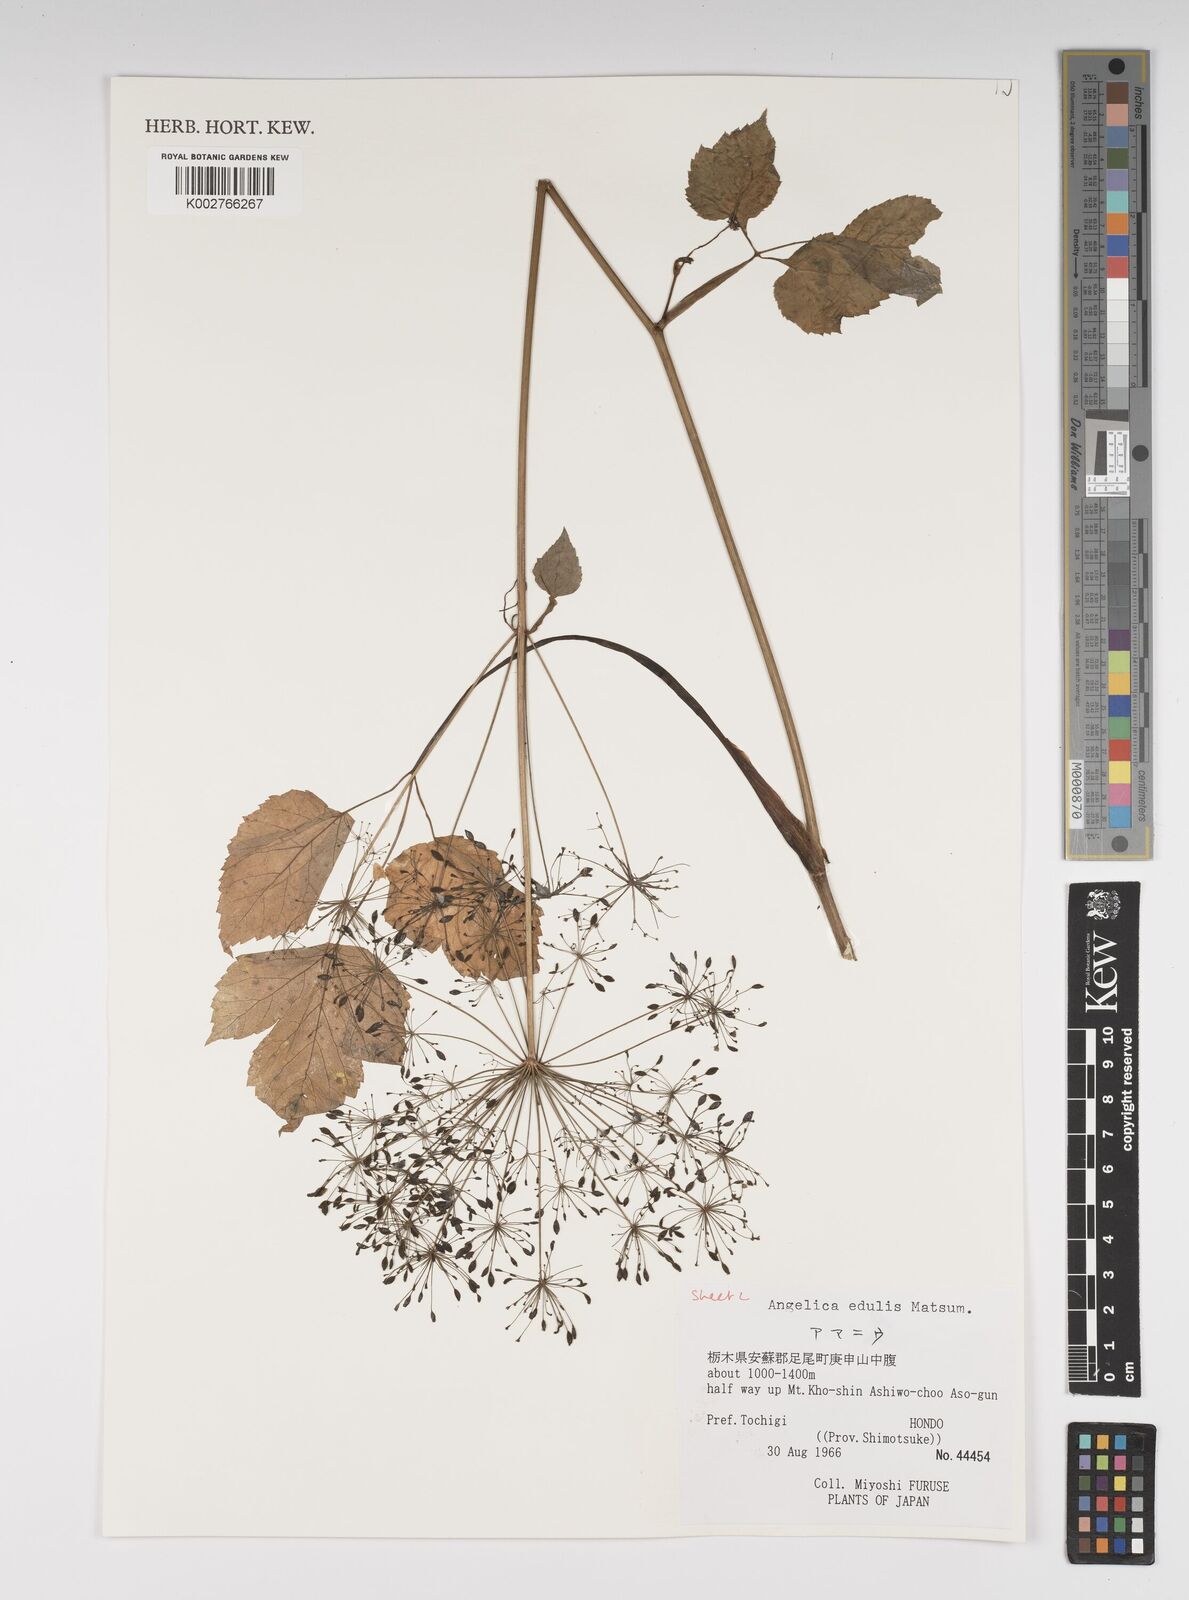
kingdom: Plantae
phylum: Tracheophyta
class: Magnoliopsida
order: Apiales
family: Apiaceae
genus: Angelica
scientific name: Angelica edulis
